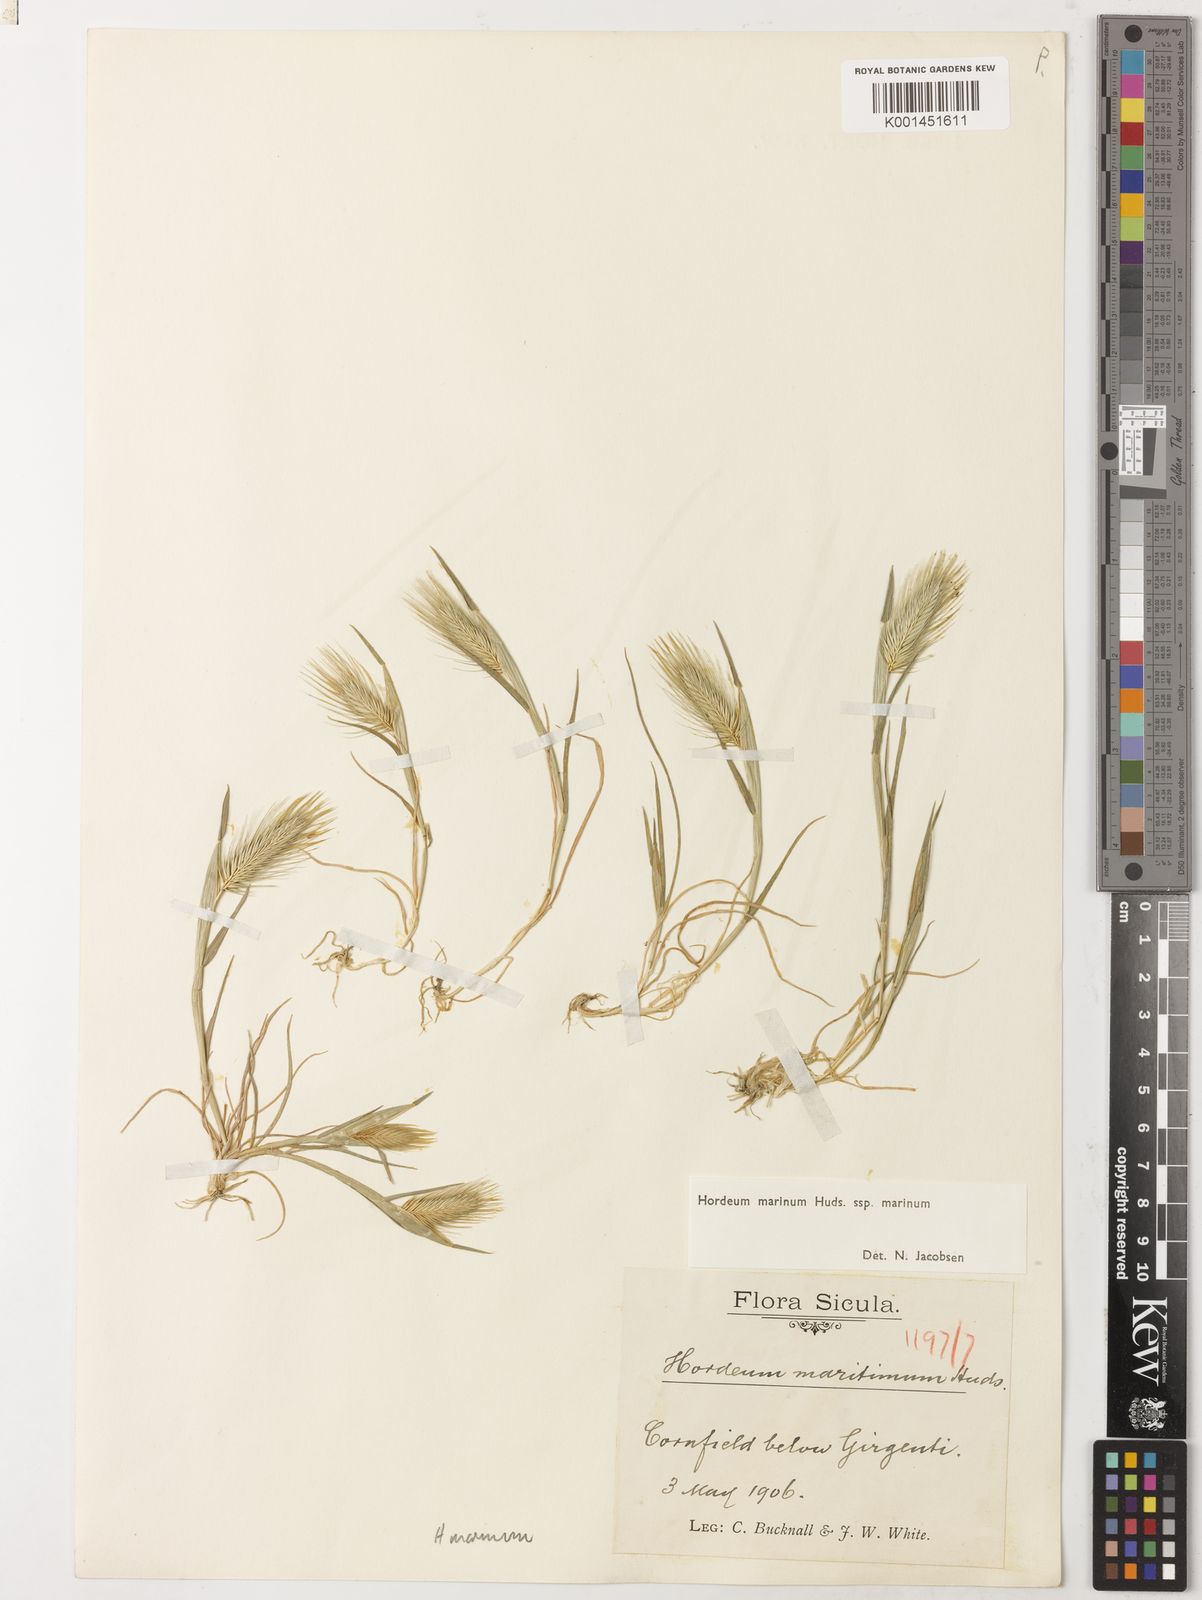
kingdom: Plantae
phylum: Tracheophyta
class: Liliopsida
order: Poales
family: Poaceae
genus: Hordeum
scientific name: Hordeum marinum
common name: Sea barley
